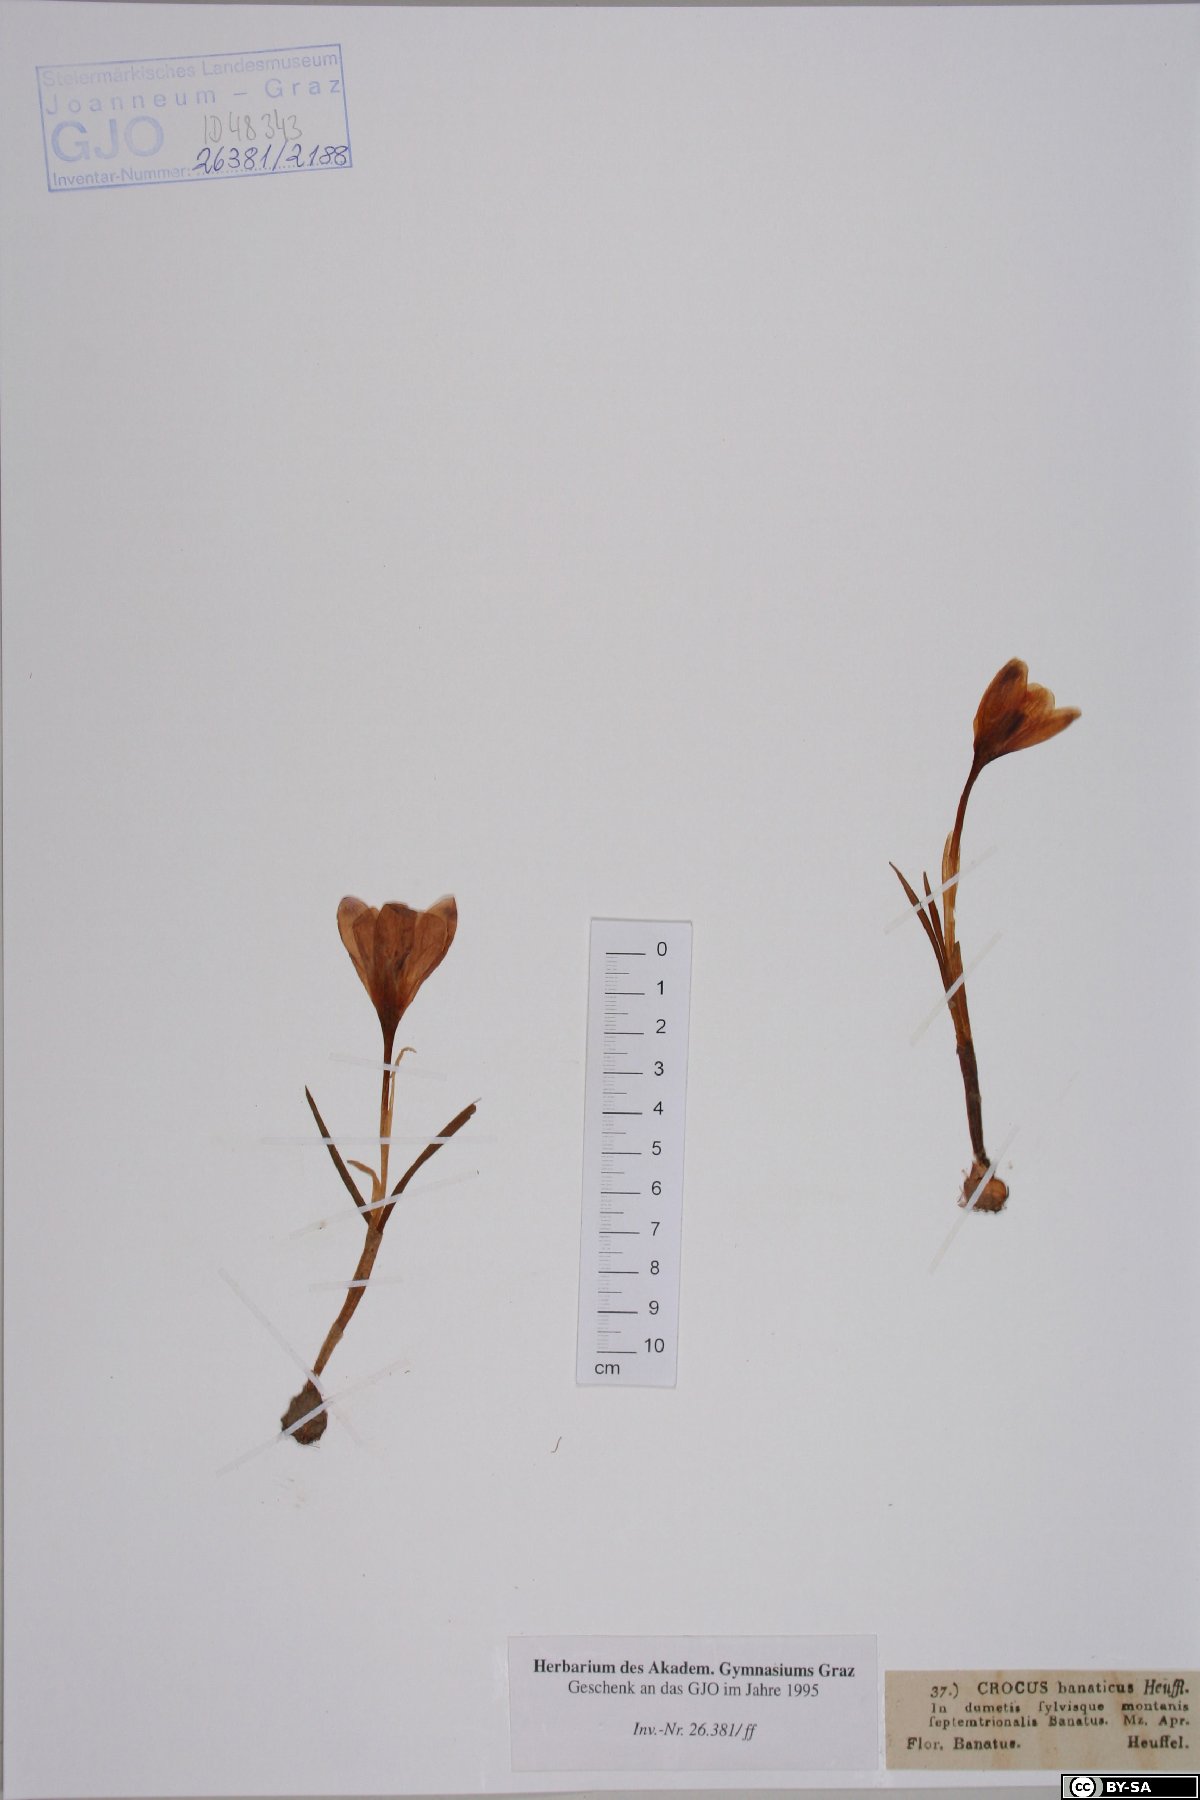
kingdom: Plantae
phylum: Tracheophyta
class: Liliopsida
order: Asparagales
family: Iridaceae
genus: Crocus
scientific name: Crocus heuffelianus
